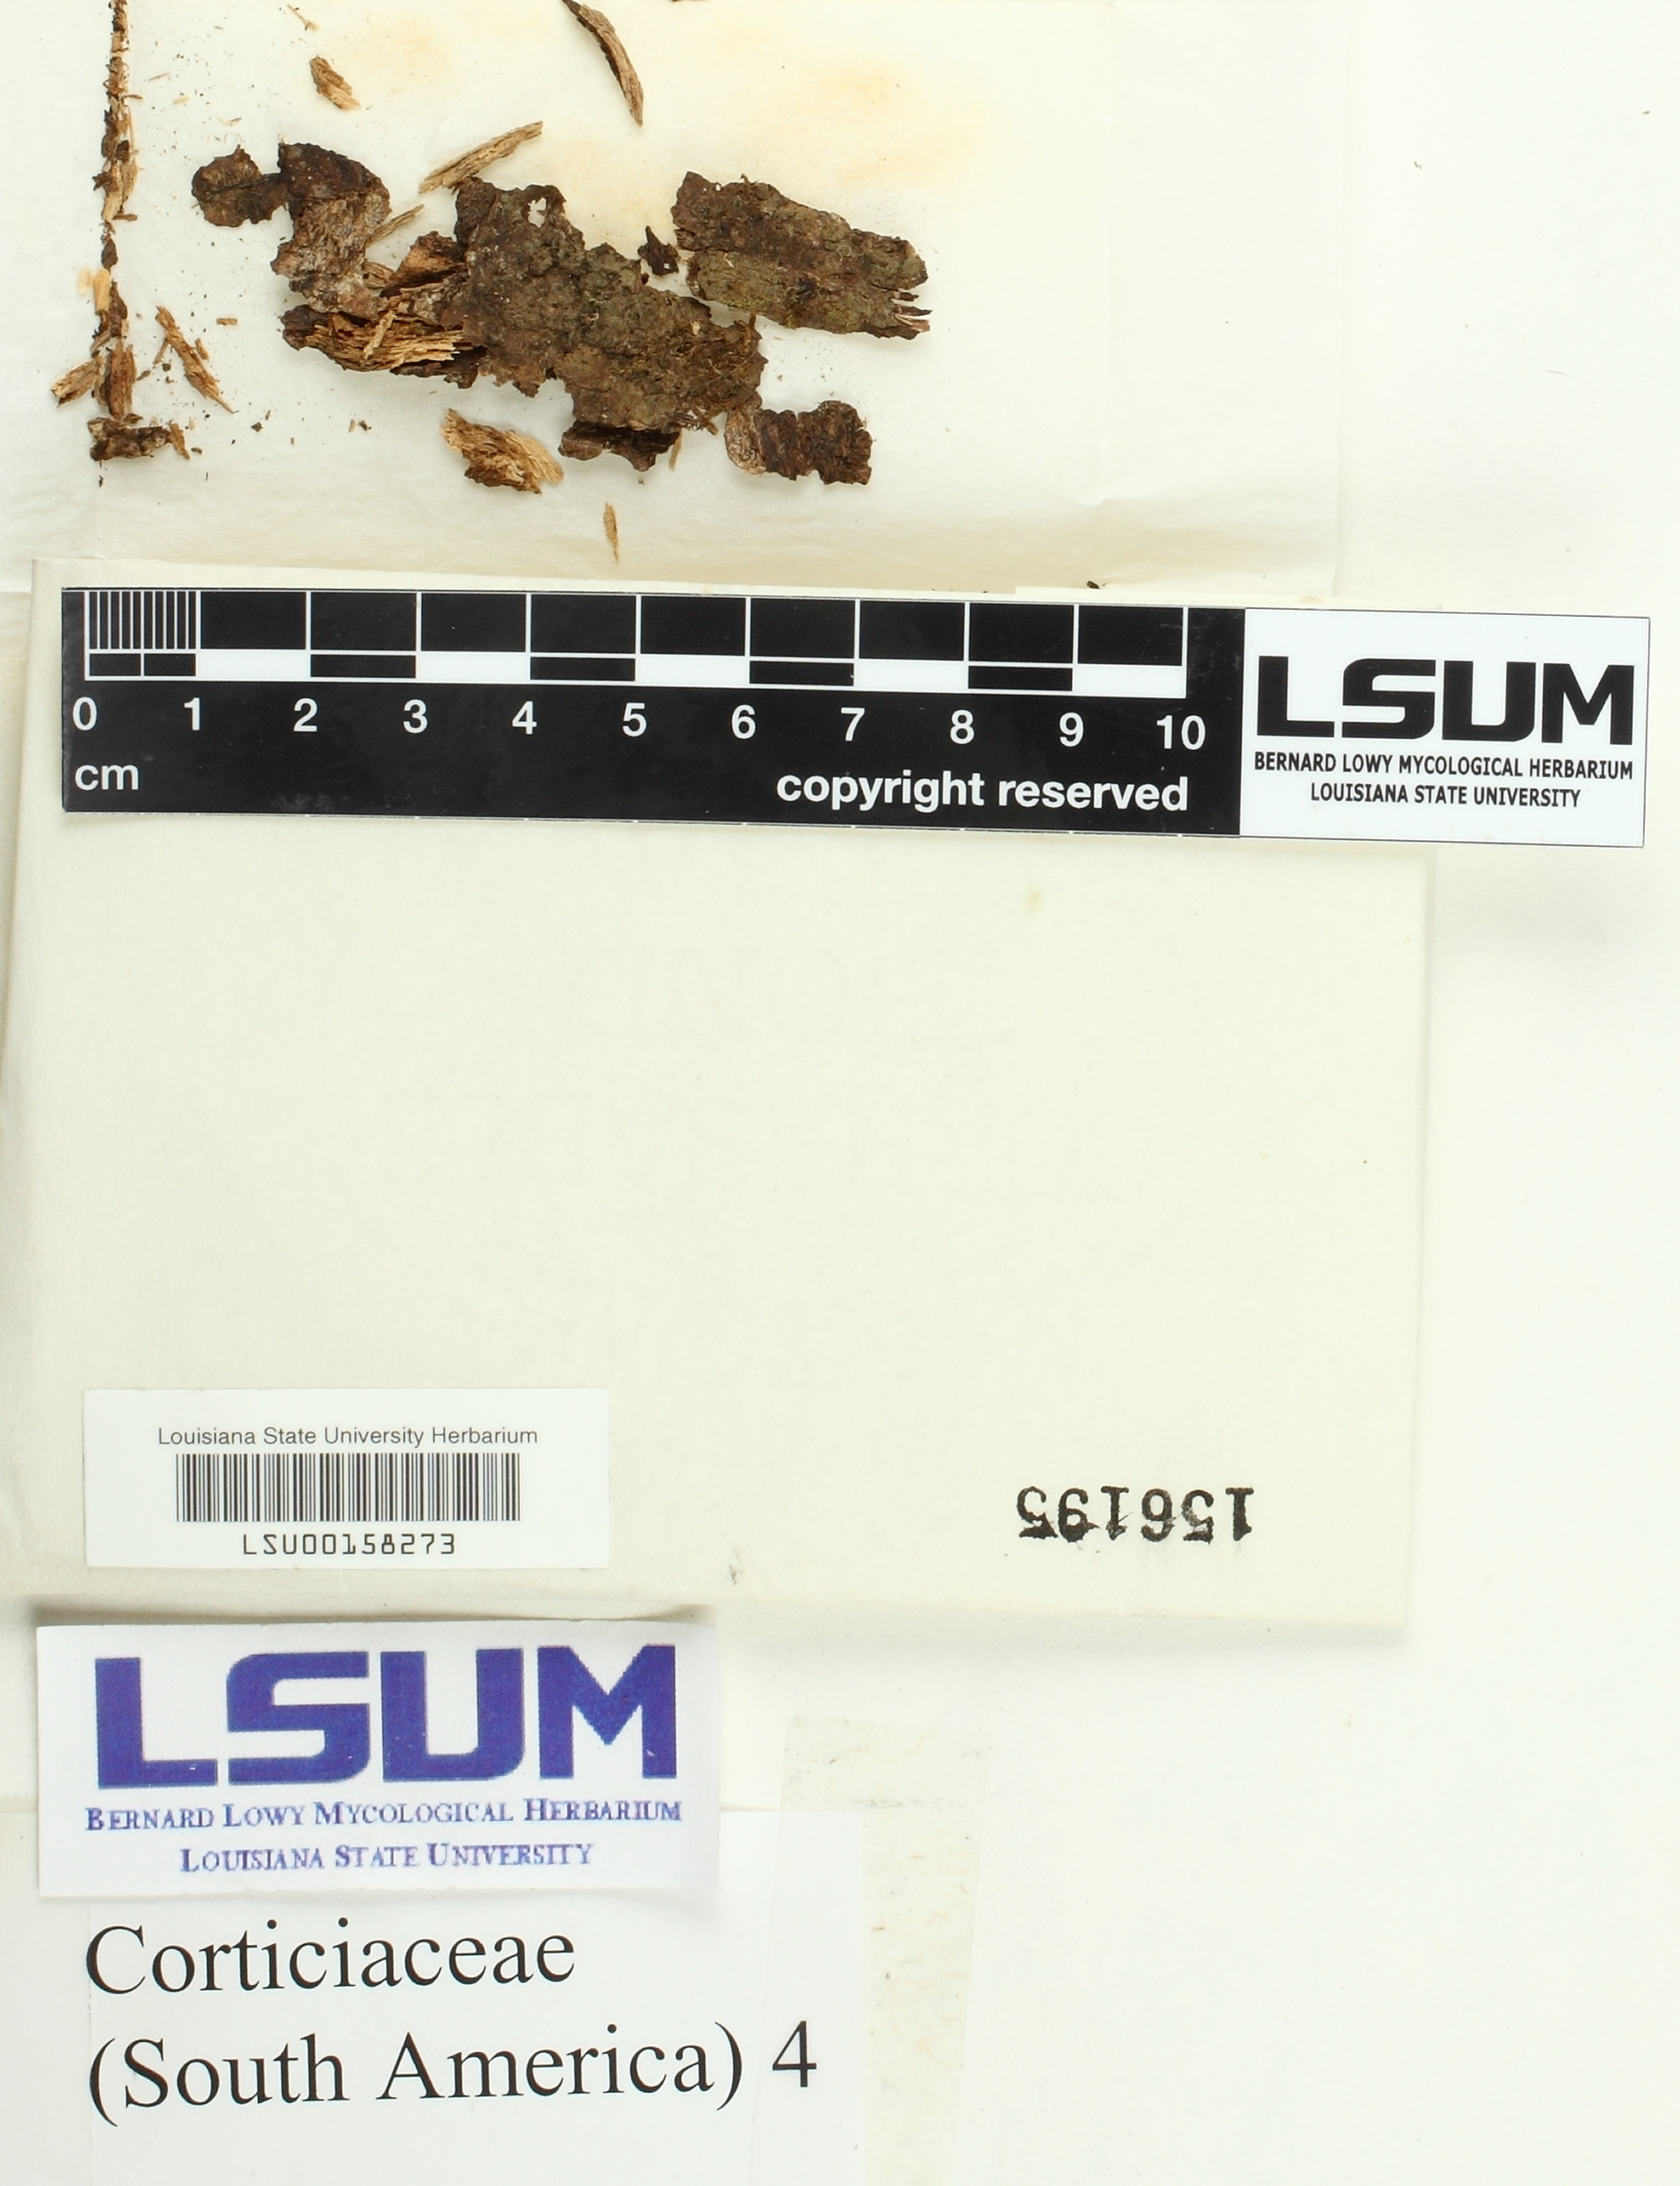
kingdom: Fungi
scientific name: Fungi
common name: Fungi
